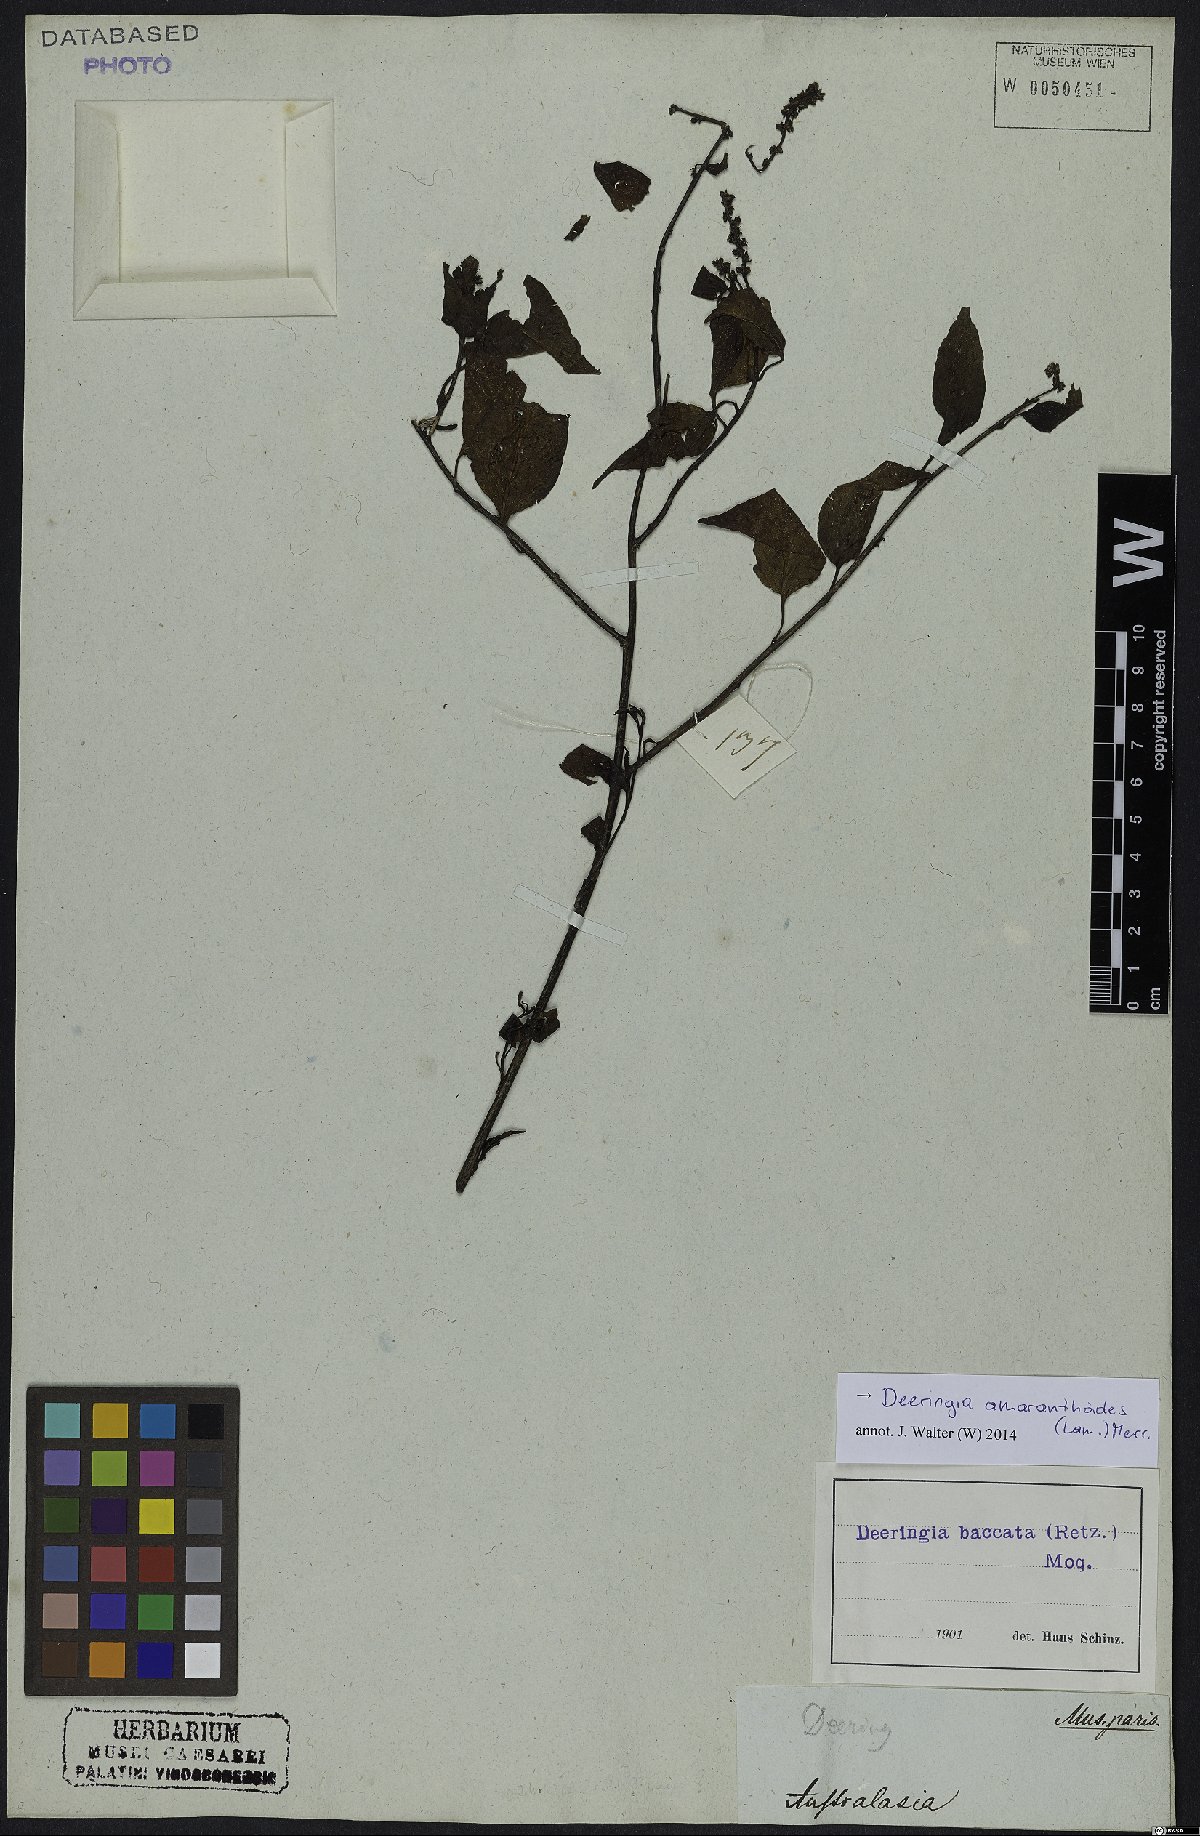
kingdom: Plantae
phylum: Tracheophyta
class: Magnoliopsida
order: Caryophyllales
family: Amaranthaceae
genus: Deeringia
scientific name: Deeringia amaranthoides
